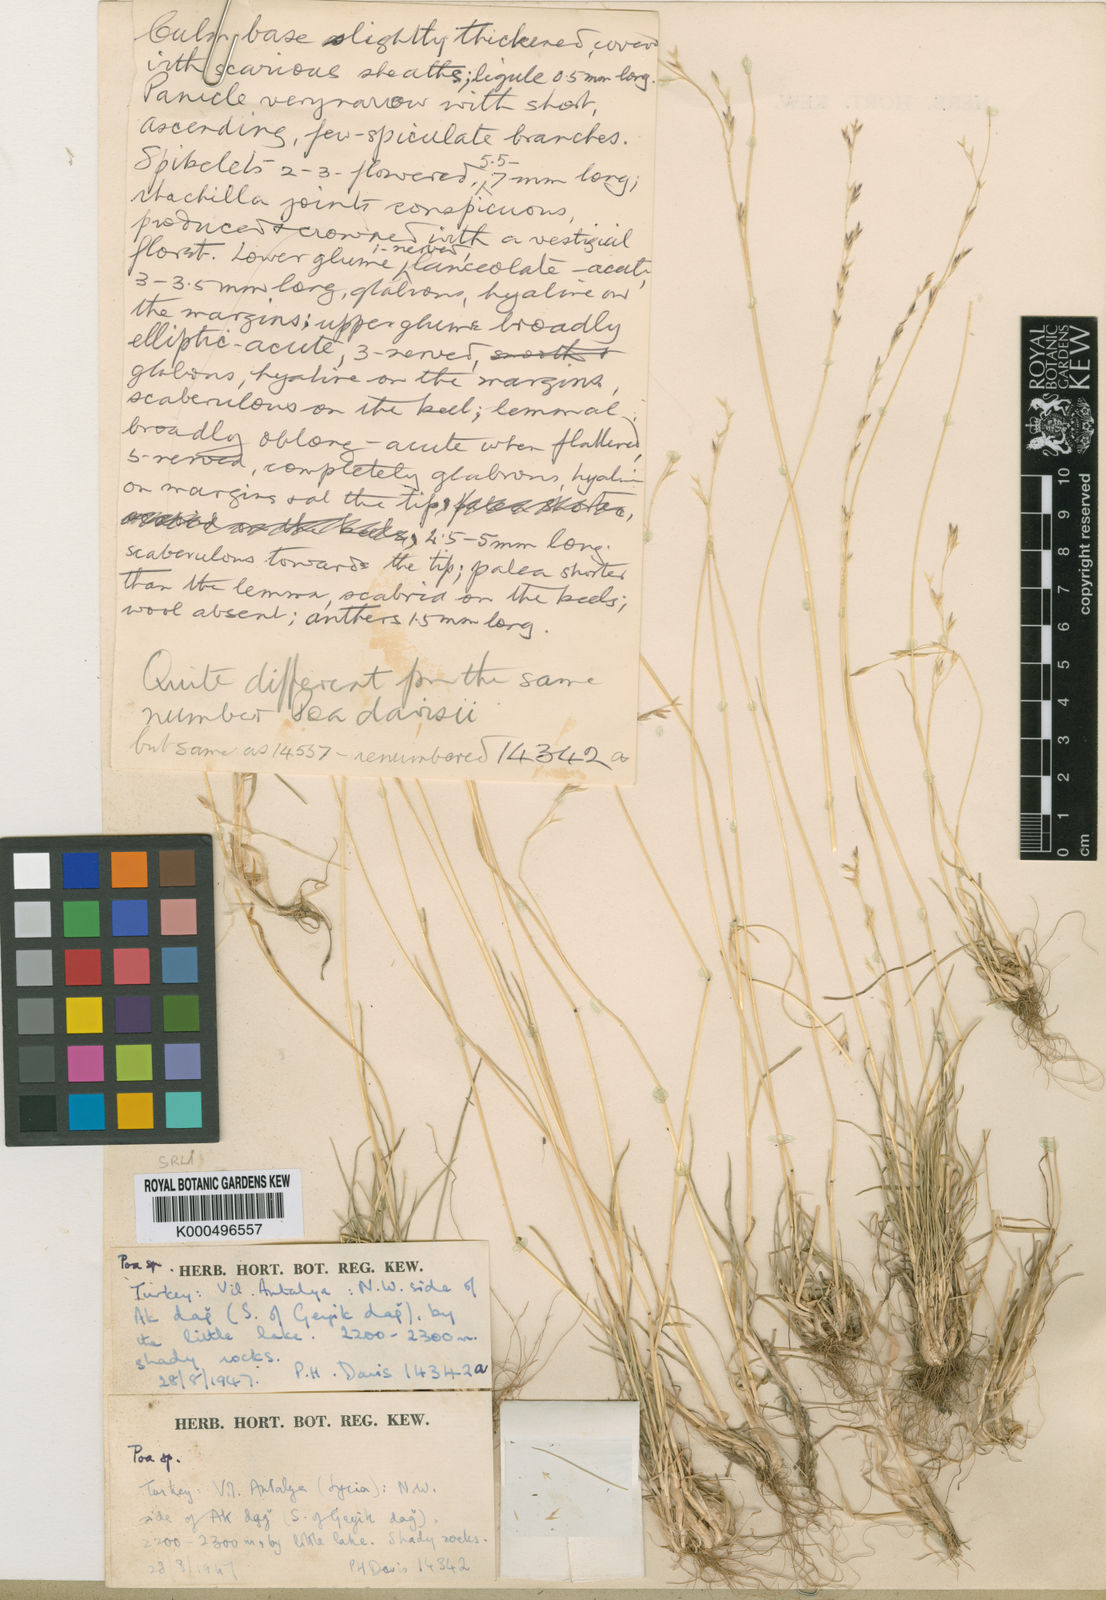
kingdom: Plantae
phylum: Tracheophyta
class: Liliopsida
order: Poales
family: Poaceae
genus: Poa
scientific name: Poa pseudobulbosa
